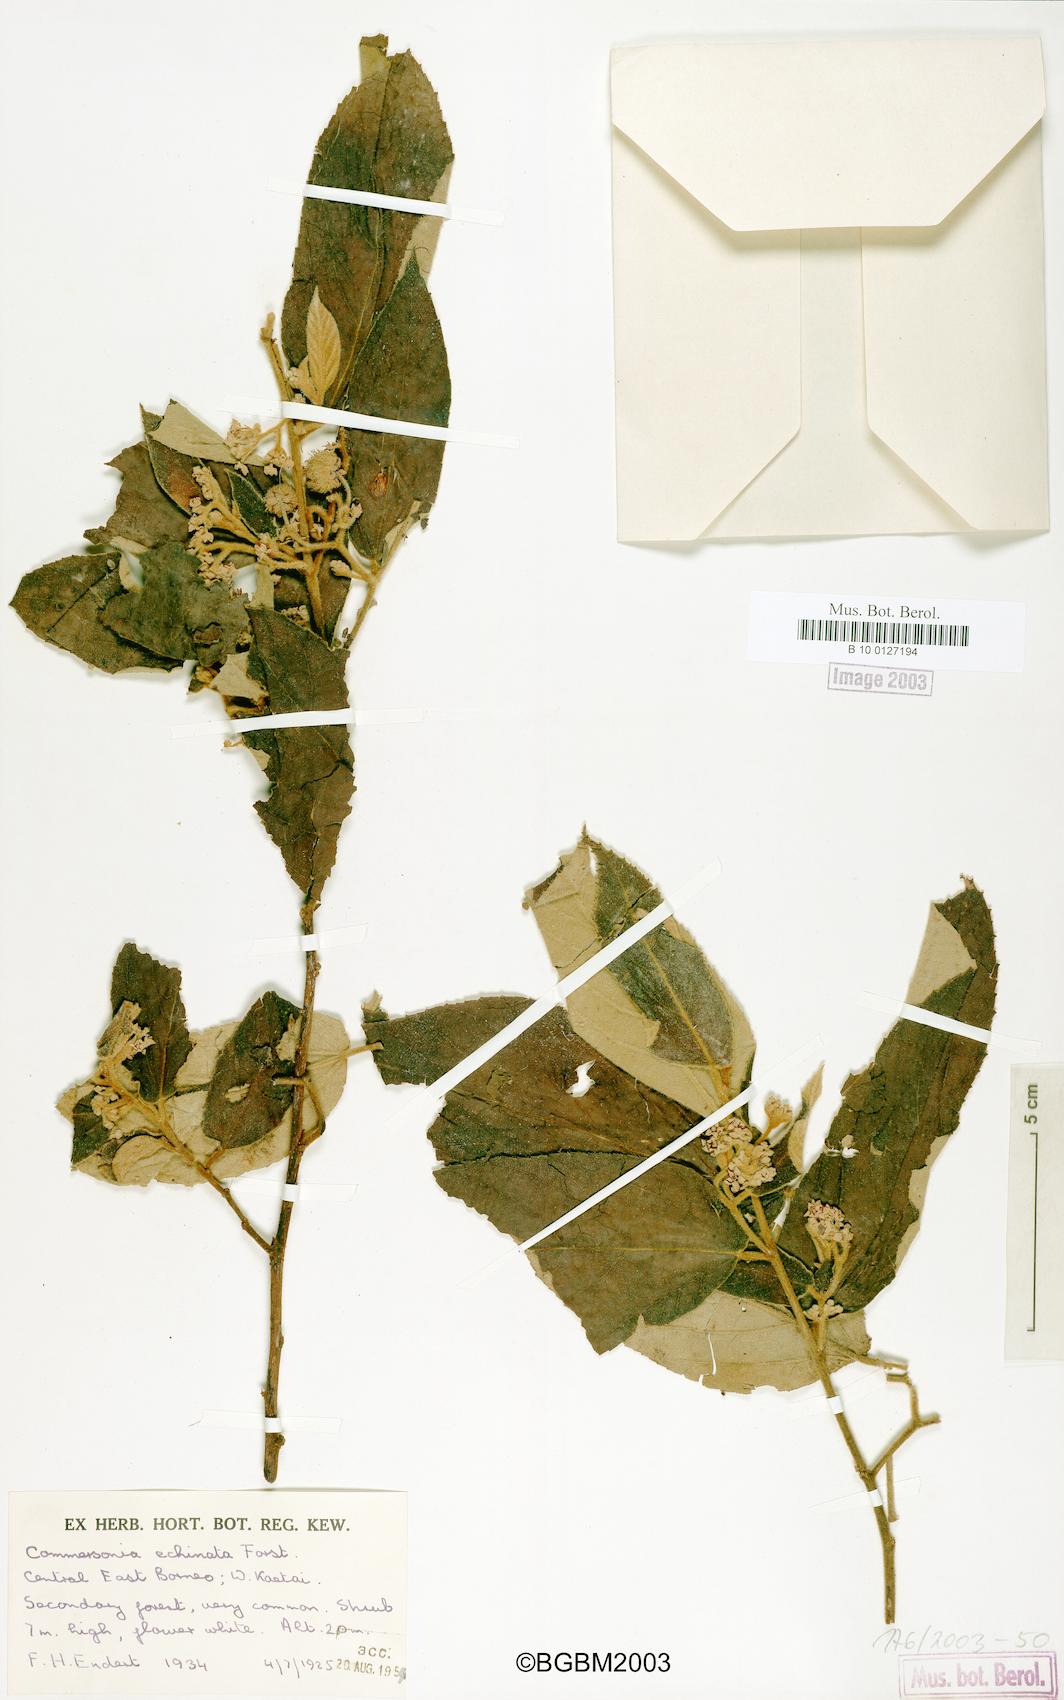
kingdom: Plantae
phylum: Tracheophyta
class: Magnoliopsida
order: Malvales
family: Malvaceae
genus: Commersonia
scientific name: Commersonia echinata
